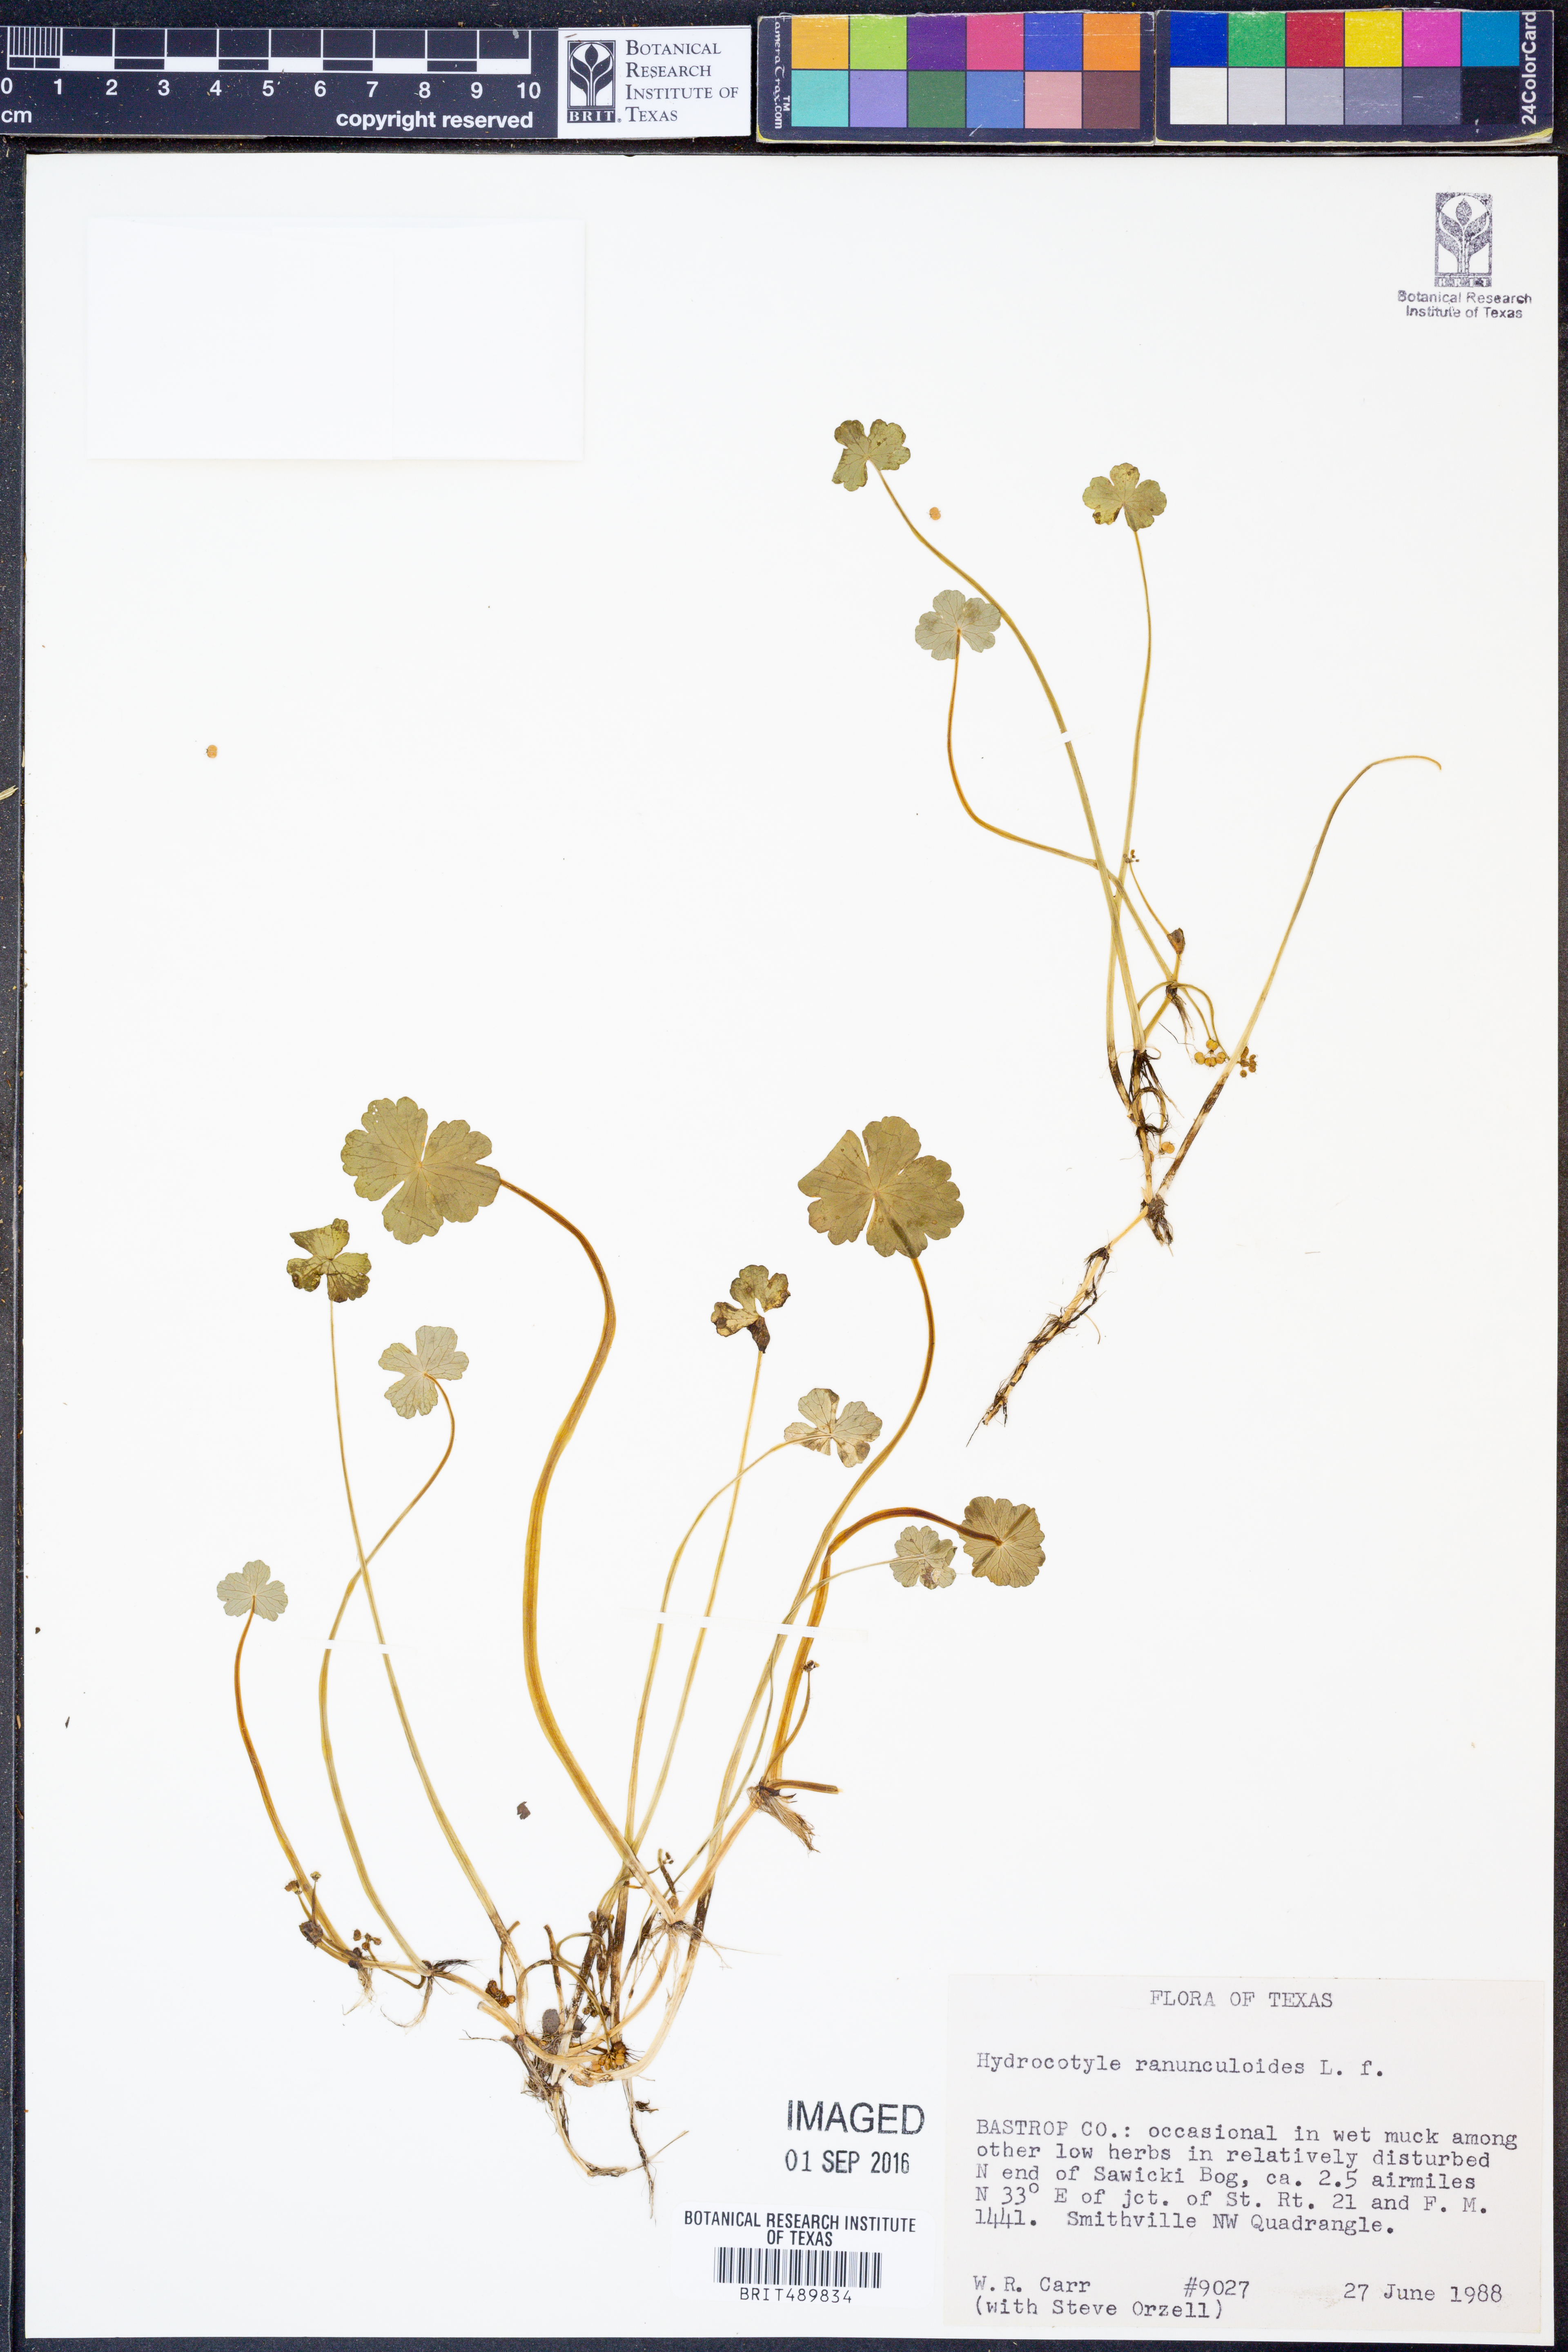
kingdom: Plantae
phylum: Tracheophyta
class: Magnoliopsida
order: Apiales
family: Araliaceae
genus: Hydrocotyle
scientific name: Hydrocotyle ranunculoides
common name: Floating pennywort
